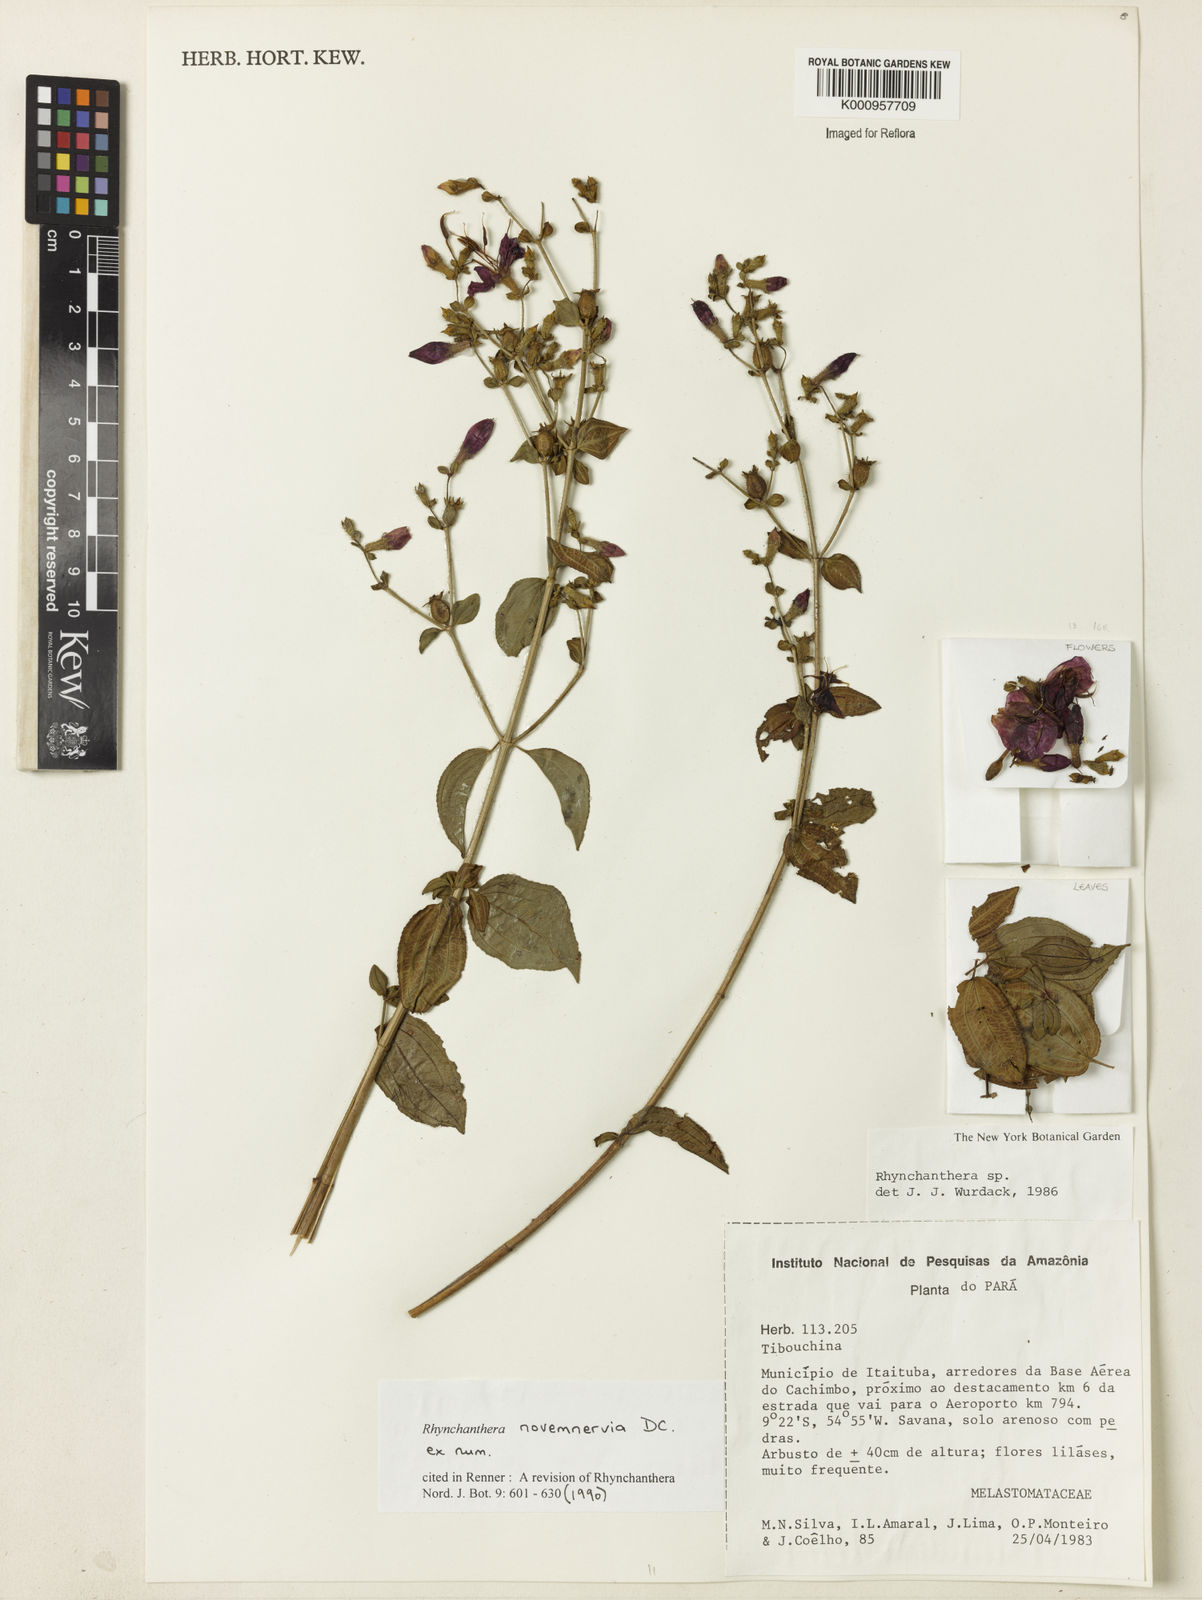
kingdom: Plantae
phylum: Tracheophyta
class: Magnoliopsida
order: Myrtales
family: Melastomataceae
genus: Rhynchanthera
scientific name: Rhynchanthera novemnervia
